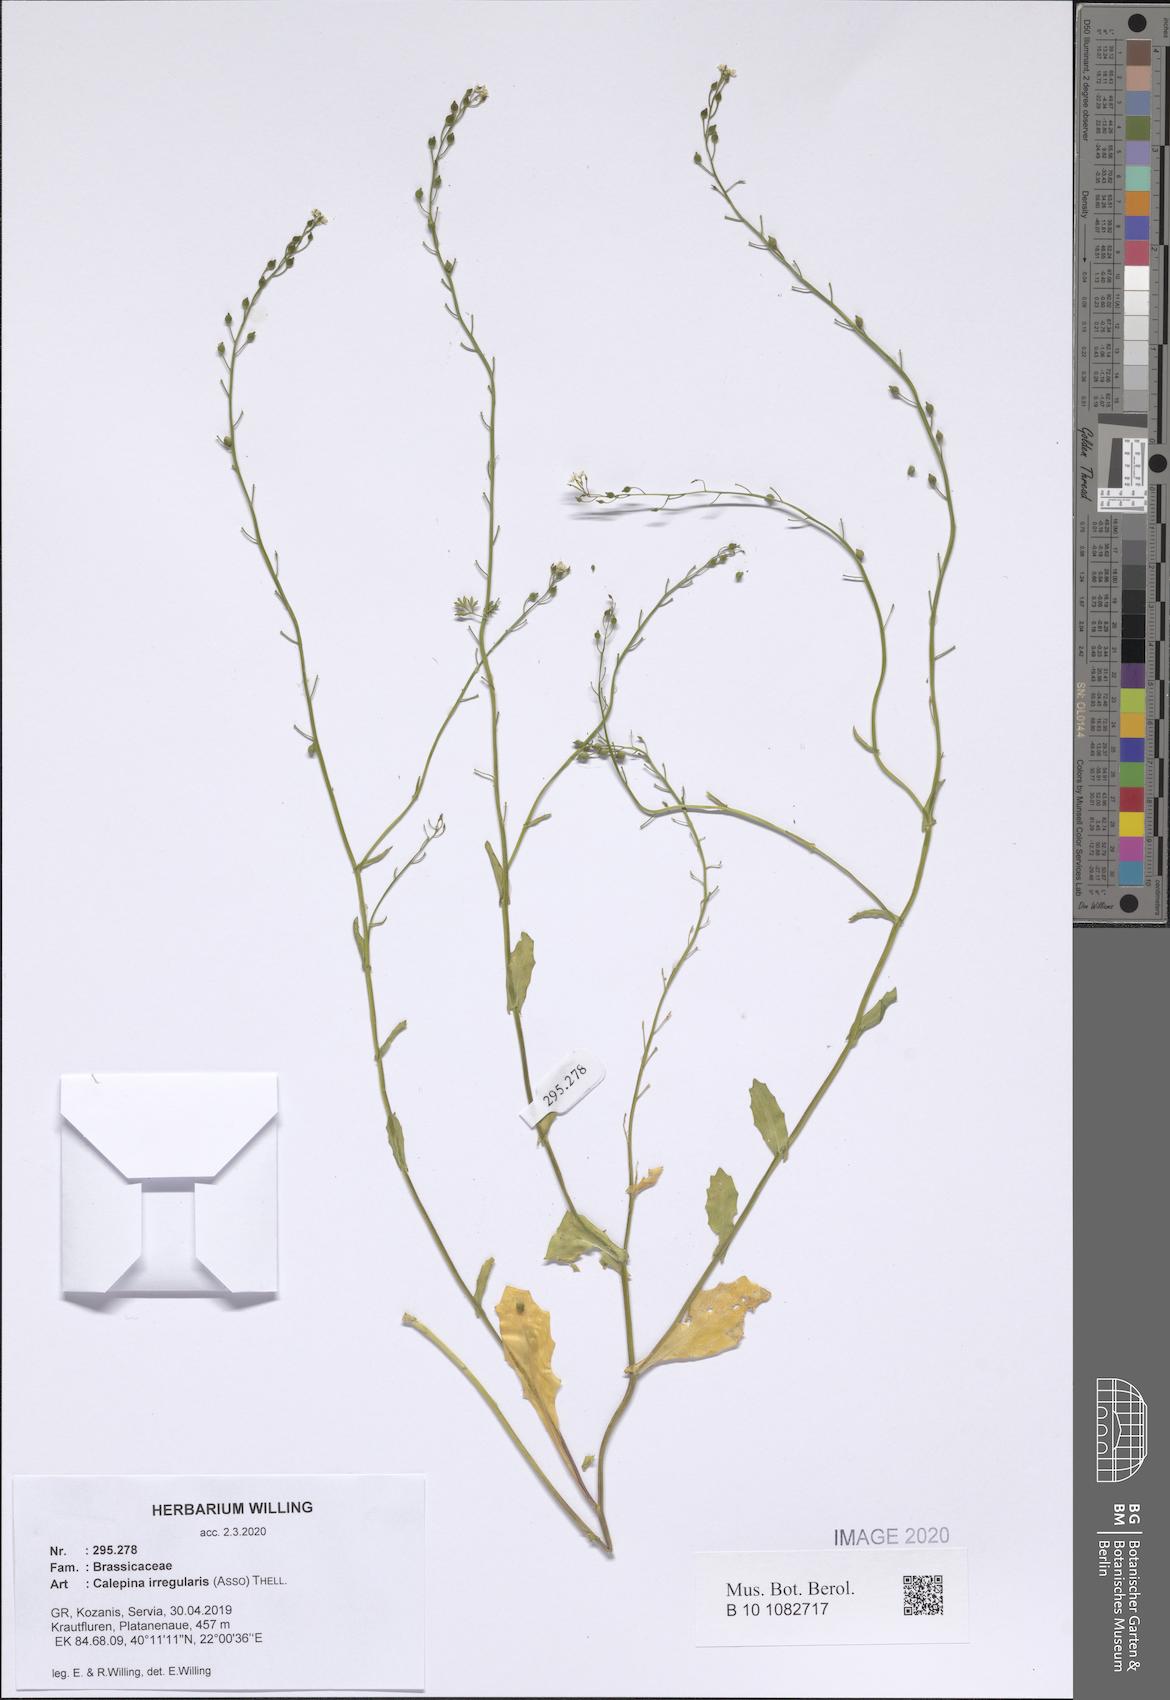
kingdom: Plantae
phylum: Tracheophyta
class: Magnoliopsida
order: Brassicales
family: Brassicaceae
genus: Calepina
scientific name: Calepina irregularis
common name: White ballmustard
